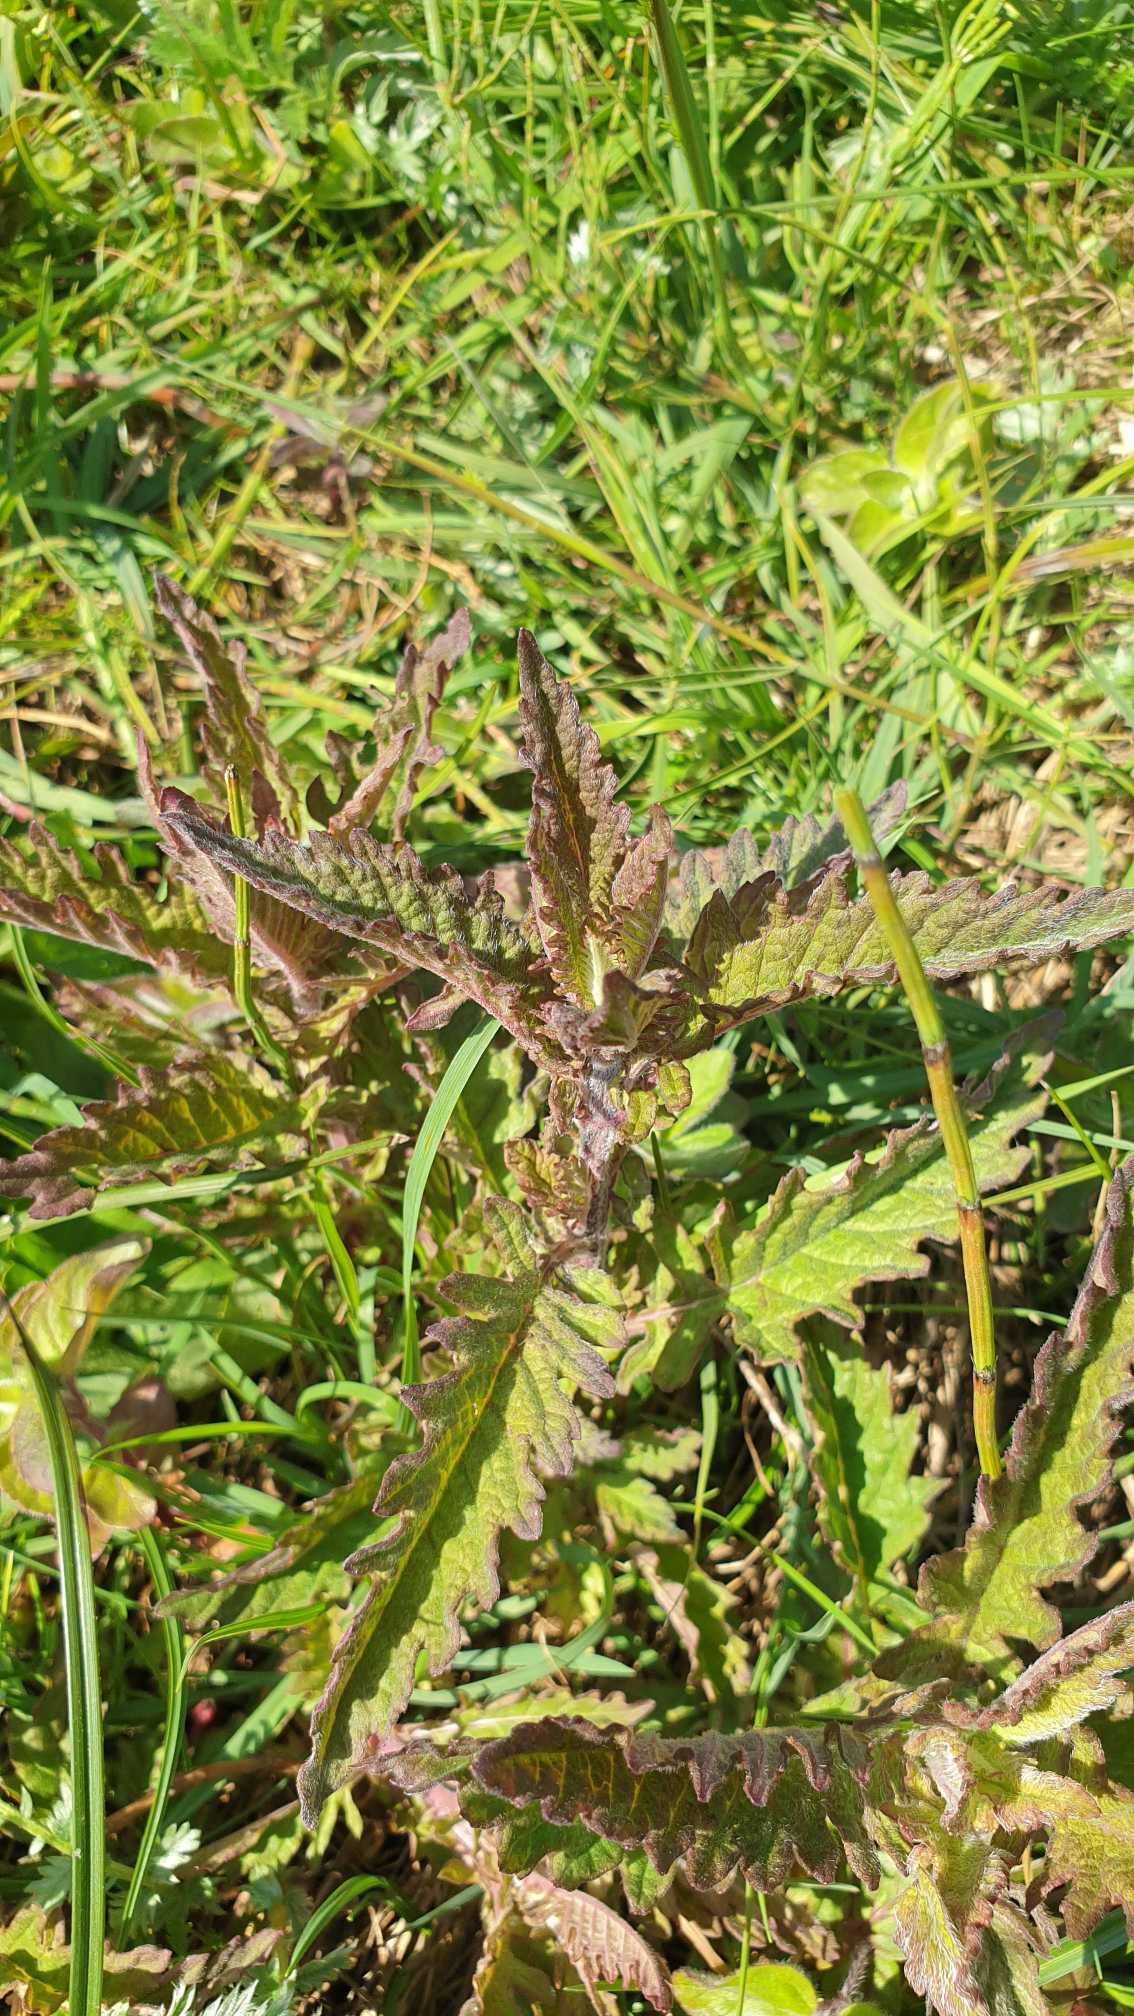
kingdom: Plantae
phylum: Tracheophyta
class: Magnoliopsida
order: Lamiales
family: Lamiaceae
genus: Lycopus
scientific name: Lycopus europaeus
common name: Sværtevæld
